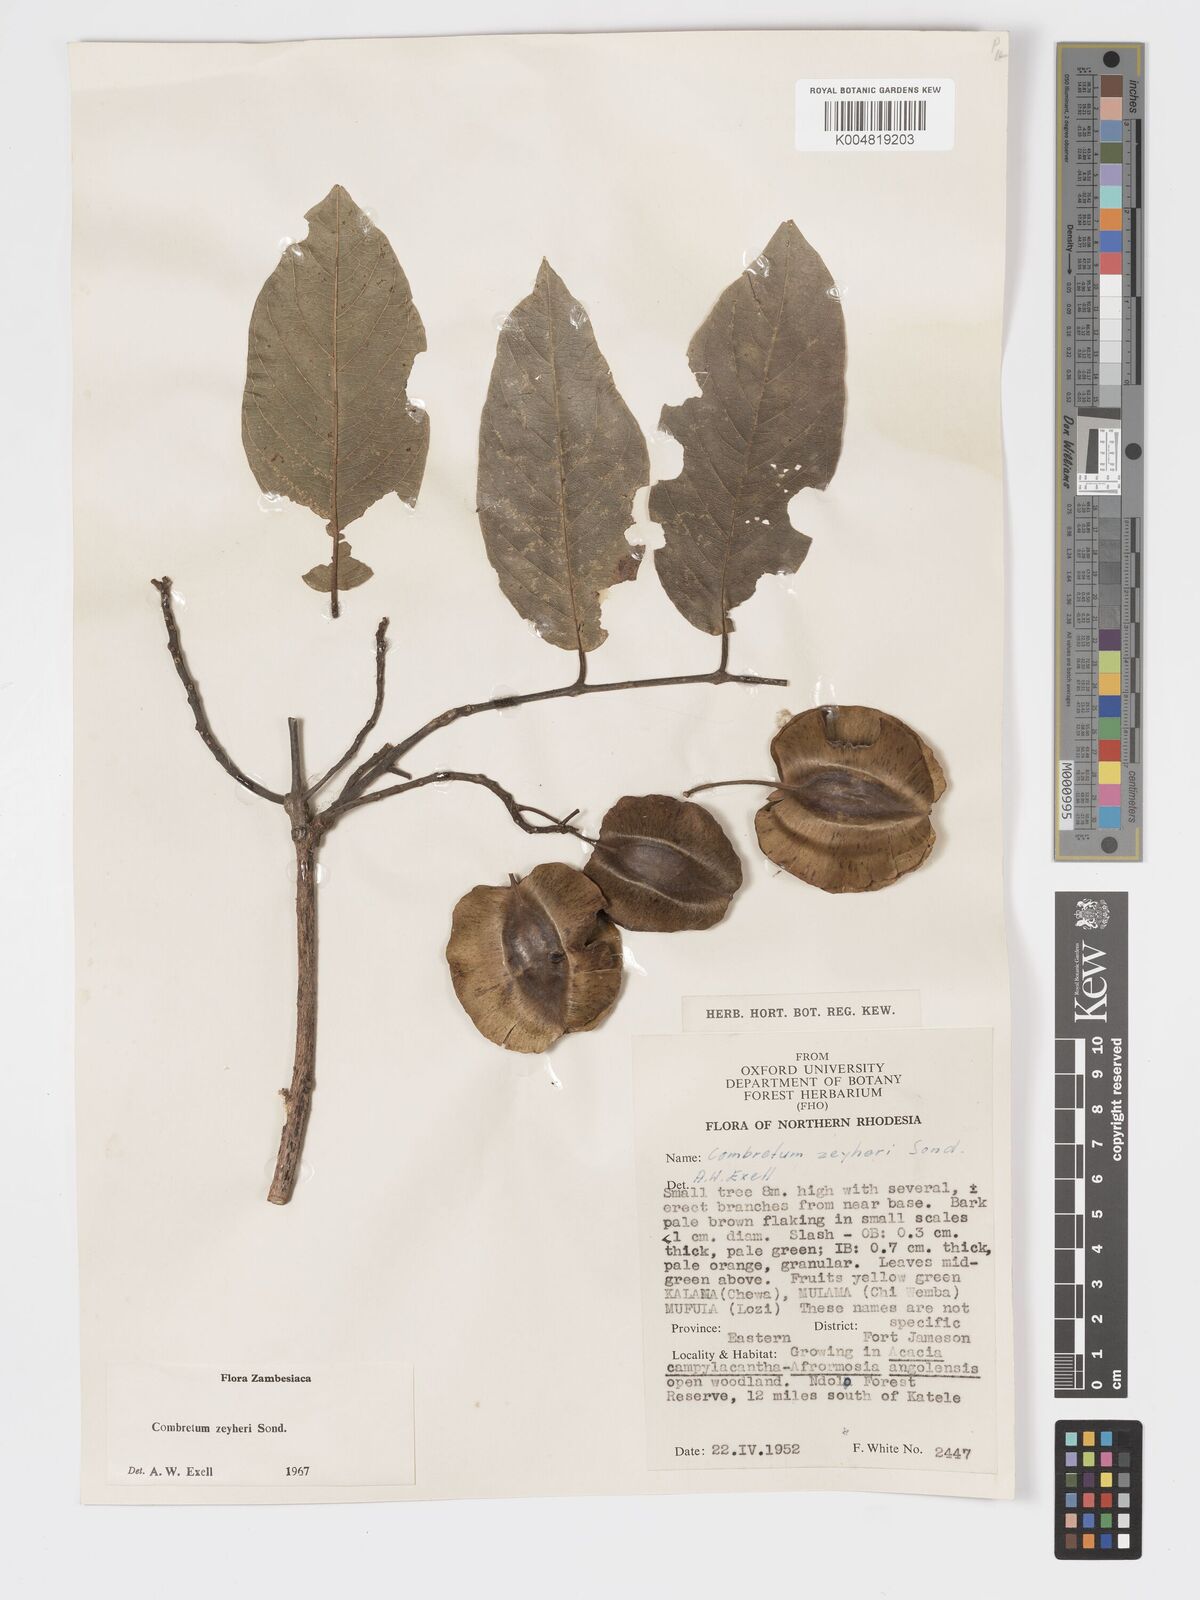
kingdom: Plantae
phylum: Tracheophyta
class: Magnoliopsida
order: Myrtales
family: Combretaceae
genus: Combretum
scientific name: Combretum zeyheri
